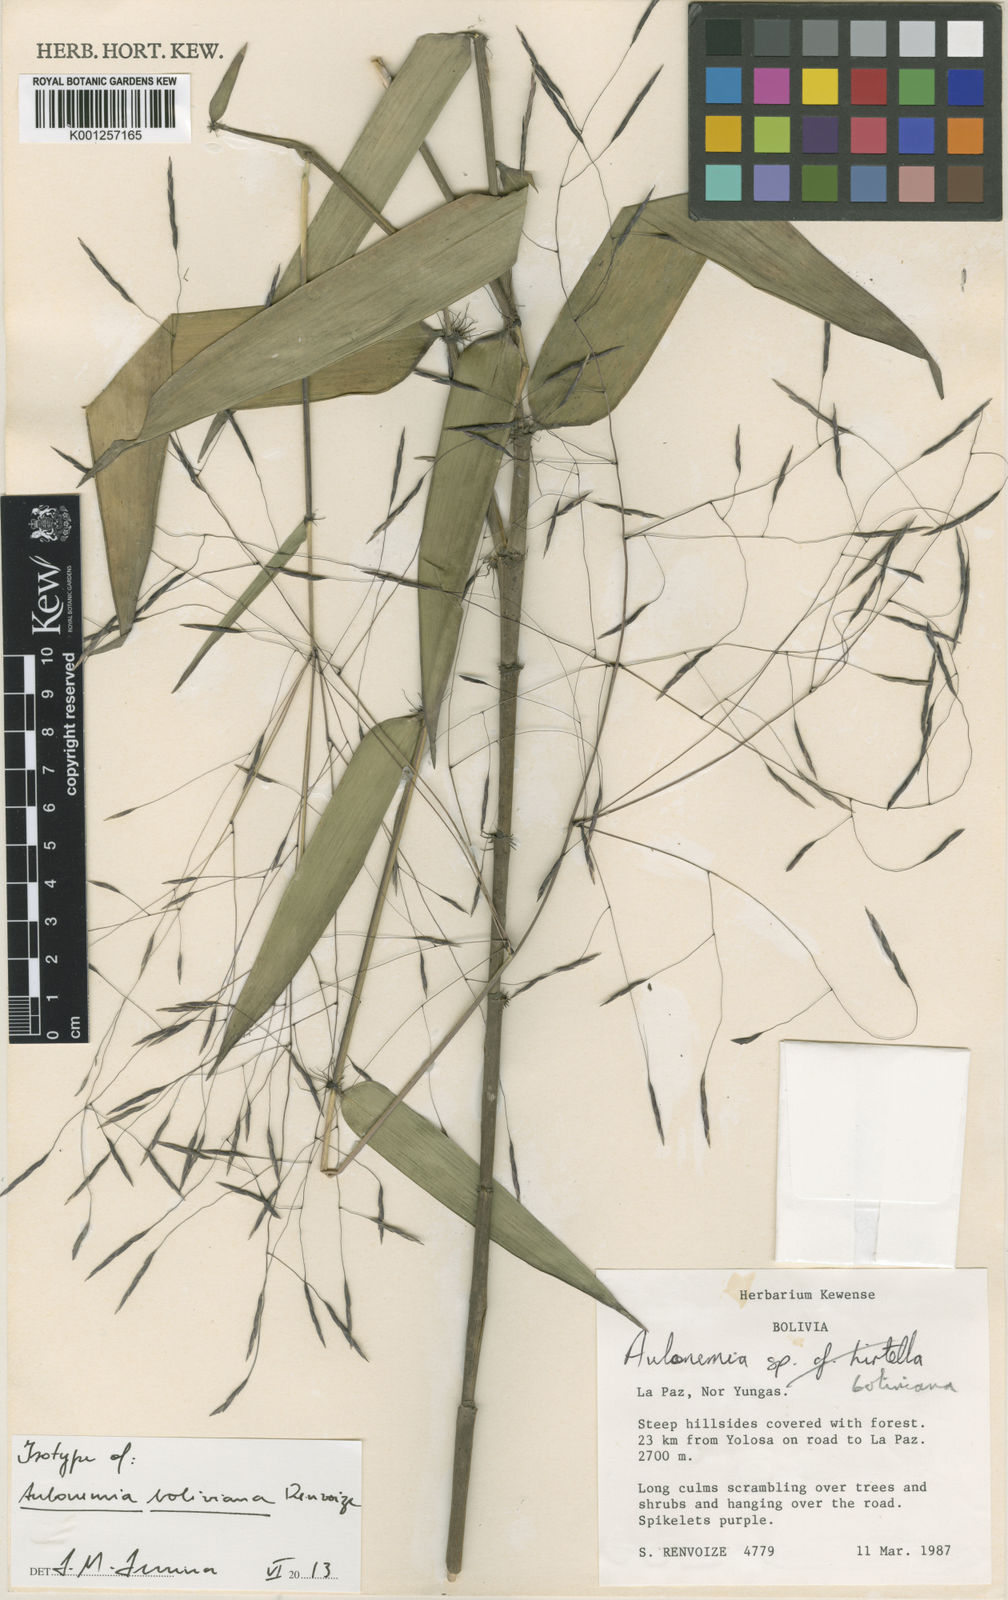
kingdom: Plantae
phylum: Tracheophyta
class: Liliopsida
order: Poales
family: Poaceae
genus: Aulonemia
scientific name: Aulonemia boliviana
